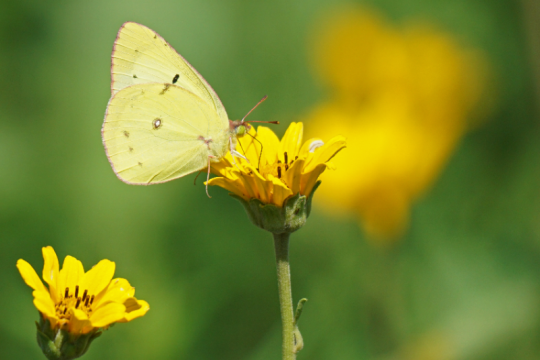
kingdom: Animalia
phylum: Arthropoda
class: Insecta
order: Lepidoptera
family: Pieridae
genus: Colias
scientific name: Colias philodice
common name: Clouded Sulphur
